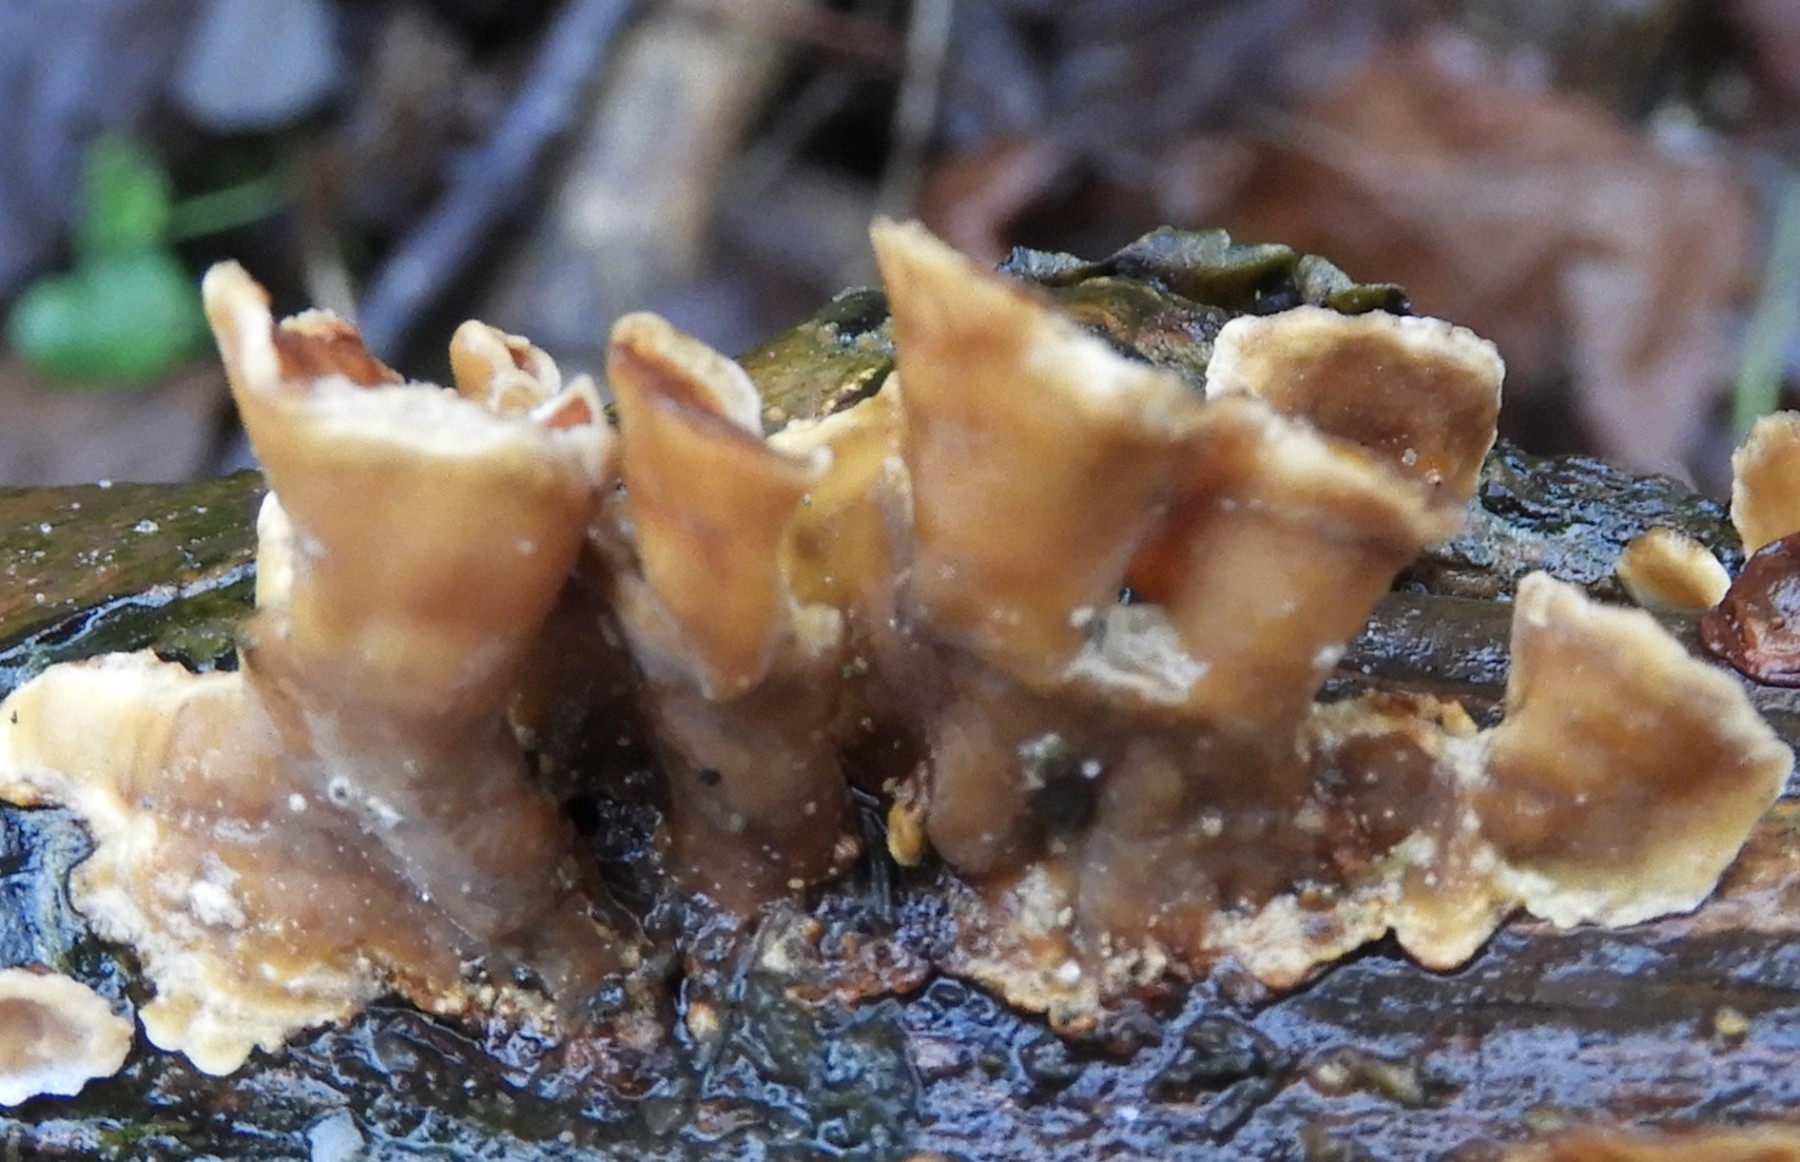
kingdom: Fungi
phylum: Basidiomycota
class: Agaricomycetes
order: Russulales
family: Stereaceae
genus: Stereum
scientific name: Stereum subtomentosum
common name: smuk lædersvamp
